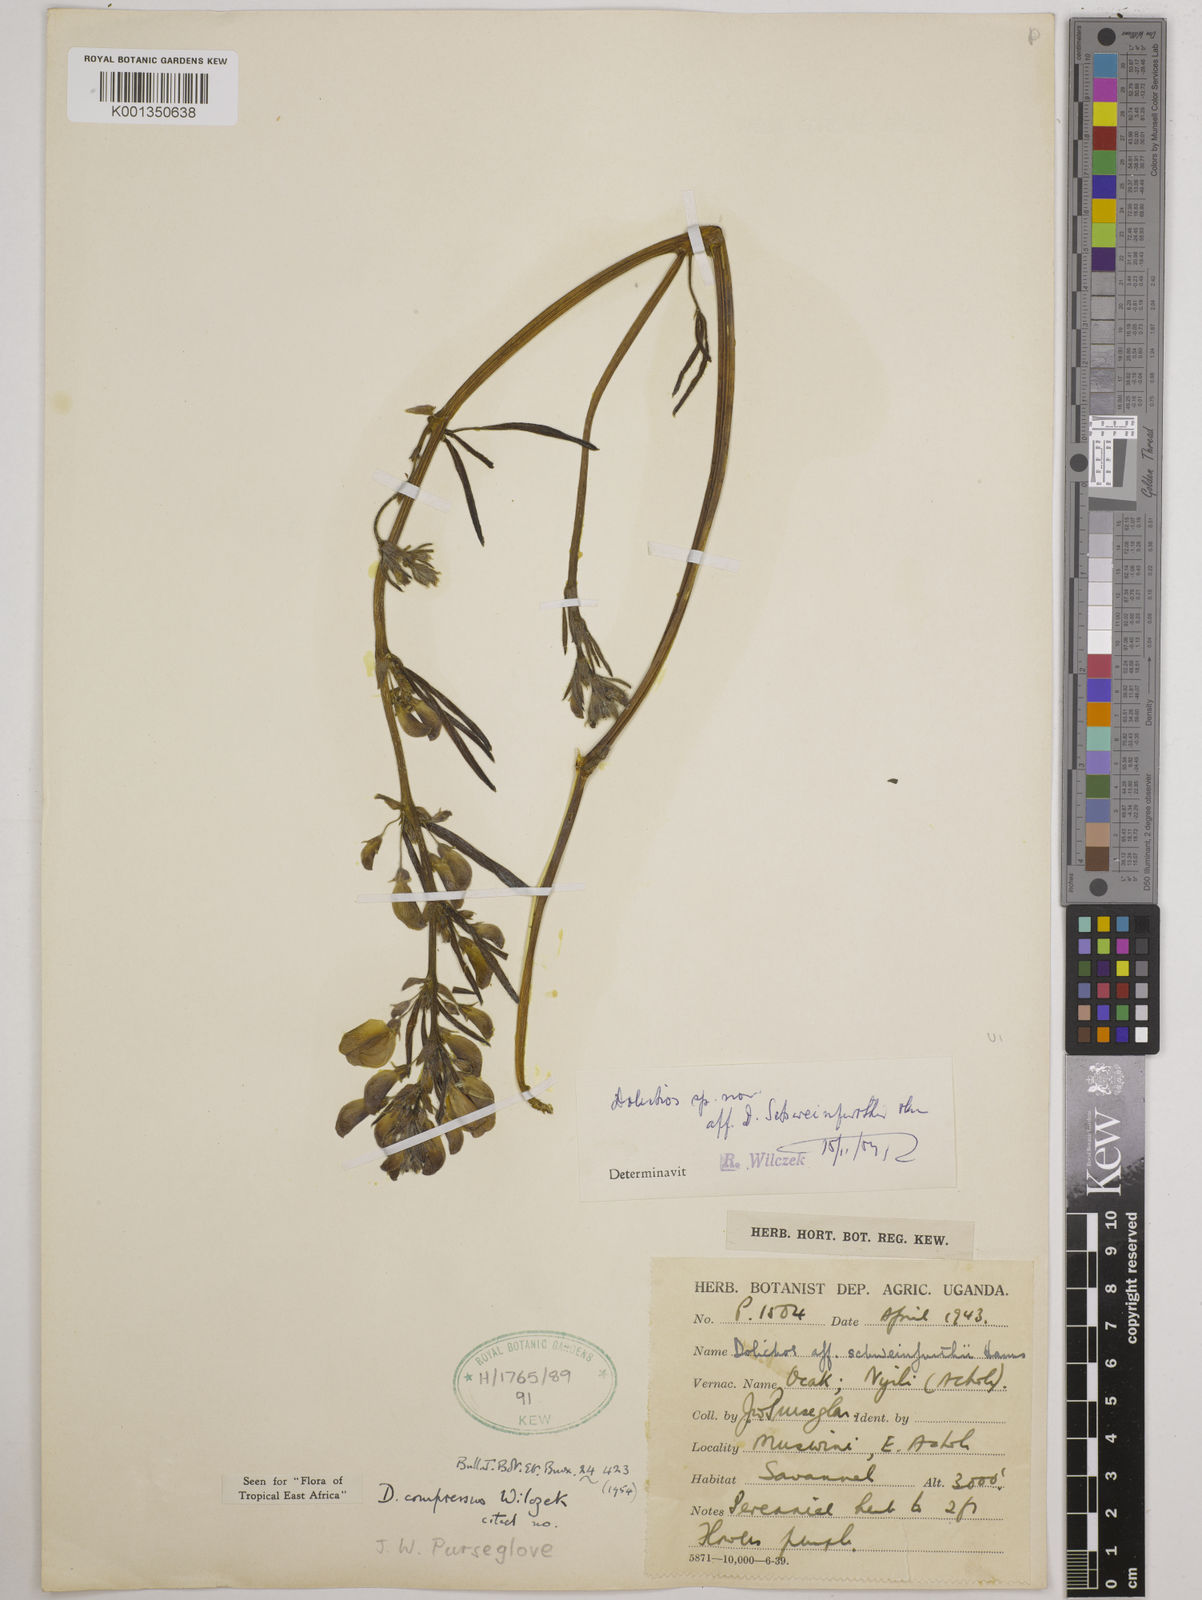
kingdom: Plantae
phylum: Tracheophyta
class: Magnoliopsida
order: Fabales
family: Fabaceae
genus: Dolichos
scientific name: Dolichos compressus
